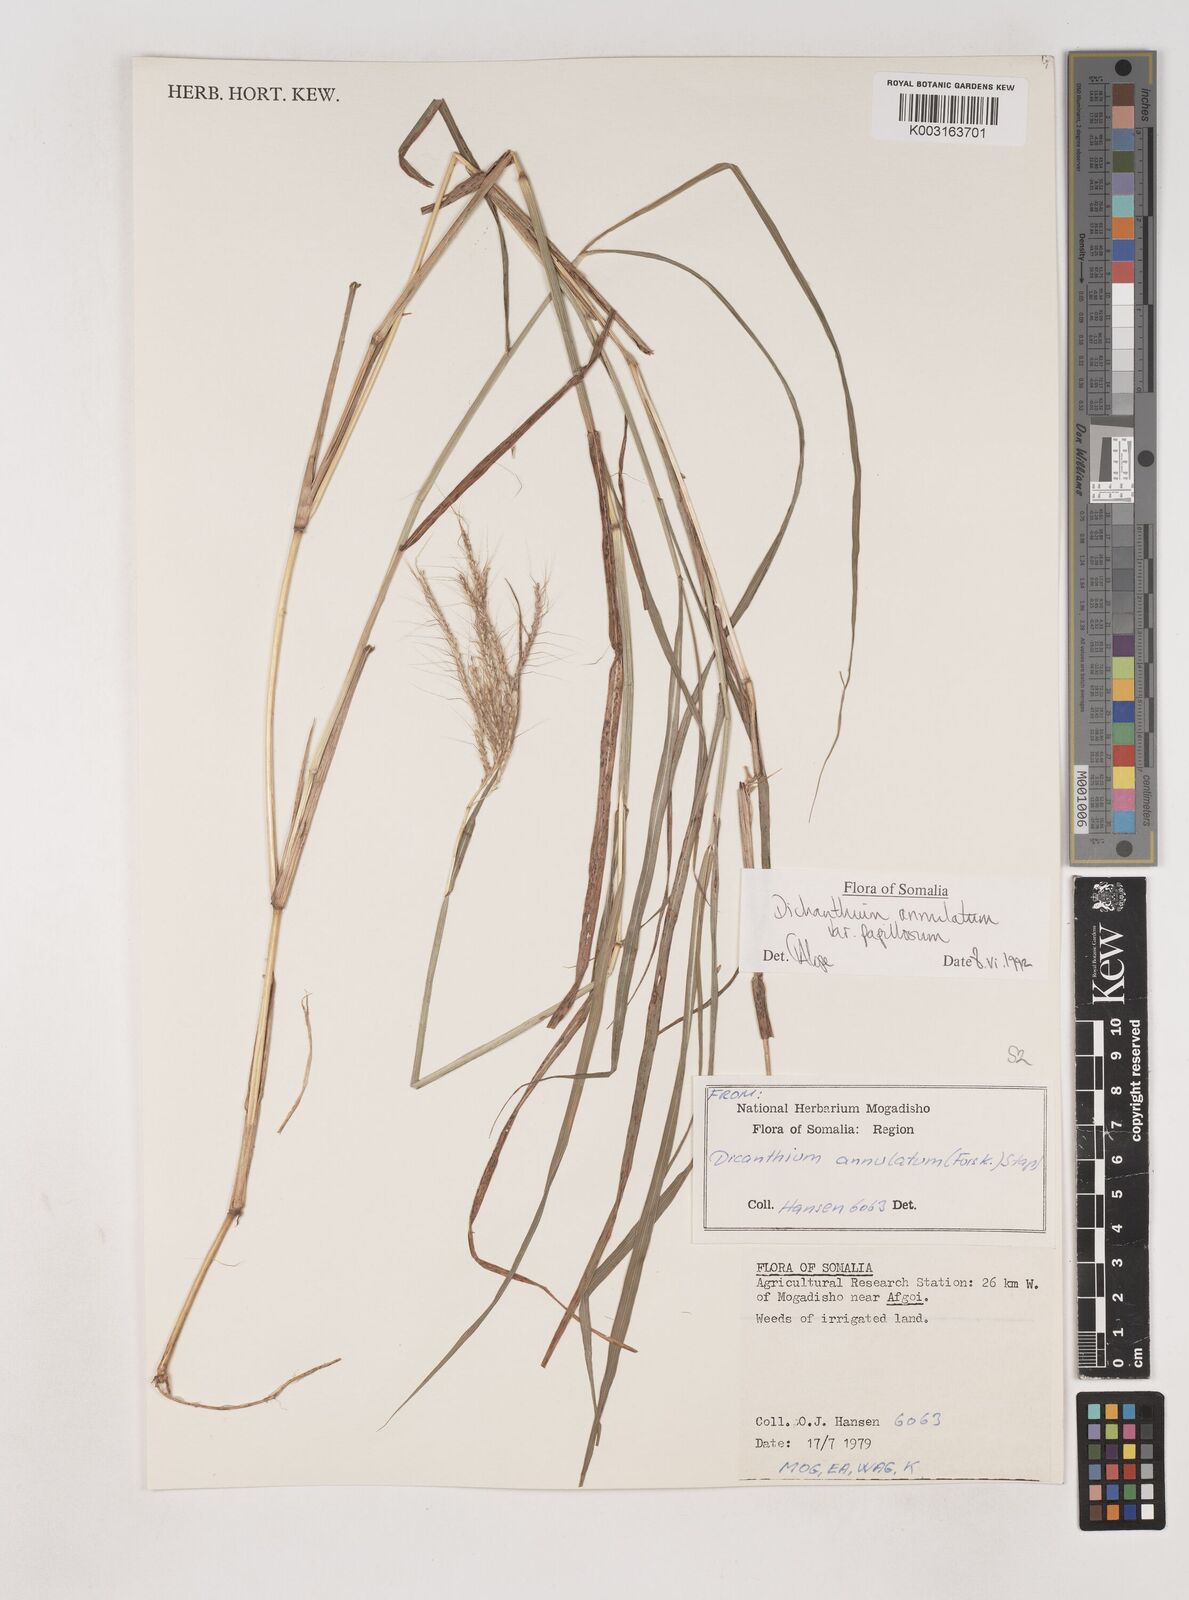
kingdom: Plantae
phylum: Tracheophyta
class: Liliopsida
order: Poales
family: Poaceae
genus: Dichanthium
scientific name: Dichanthium annulatum
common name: Kleberg's bluestem
